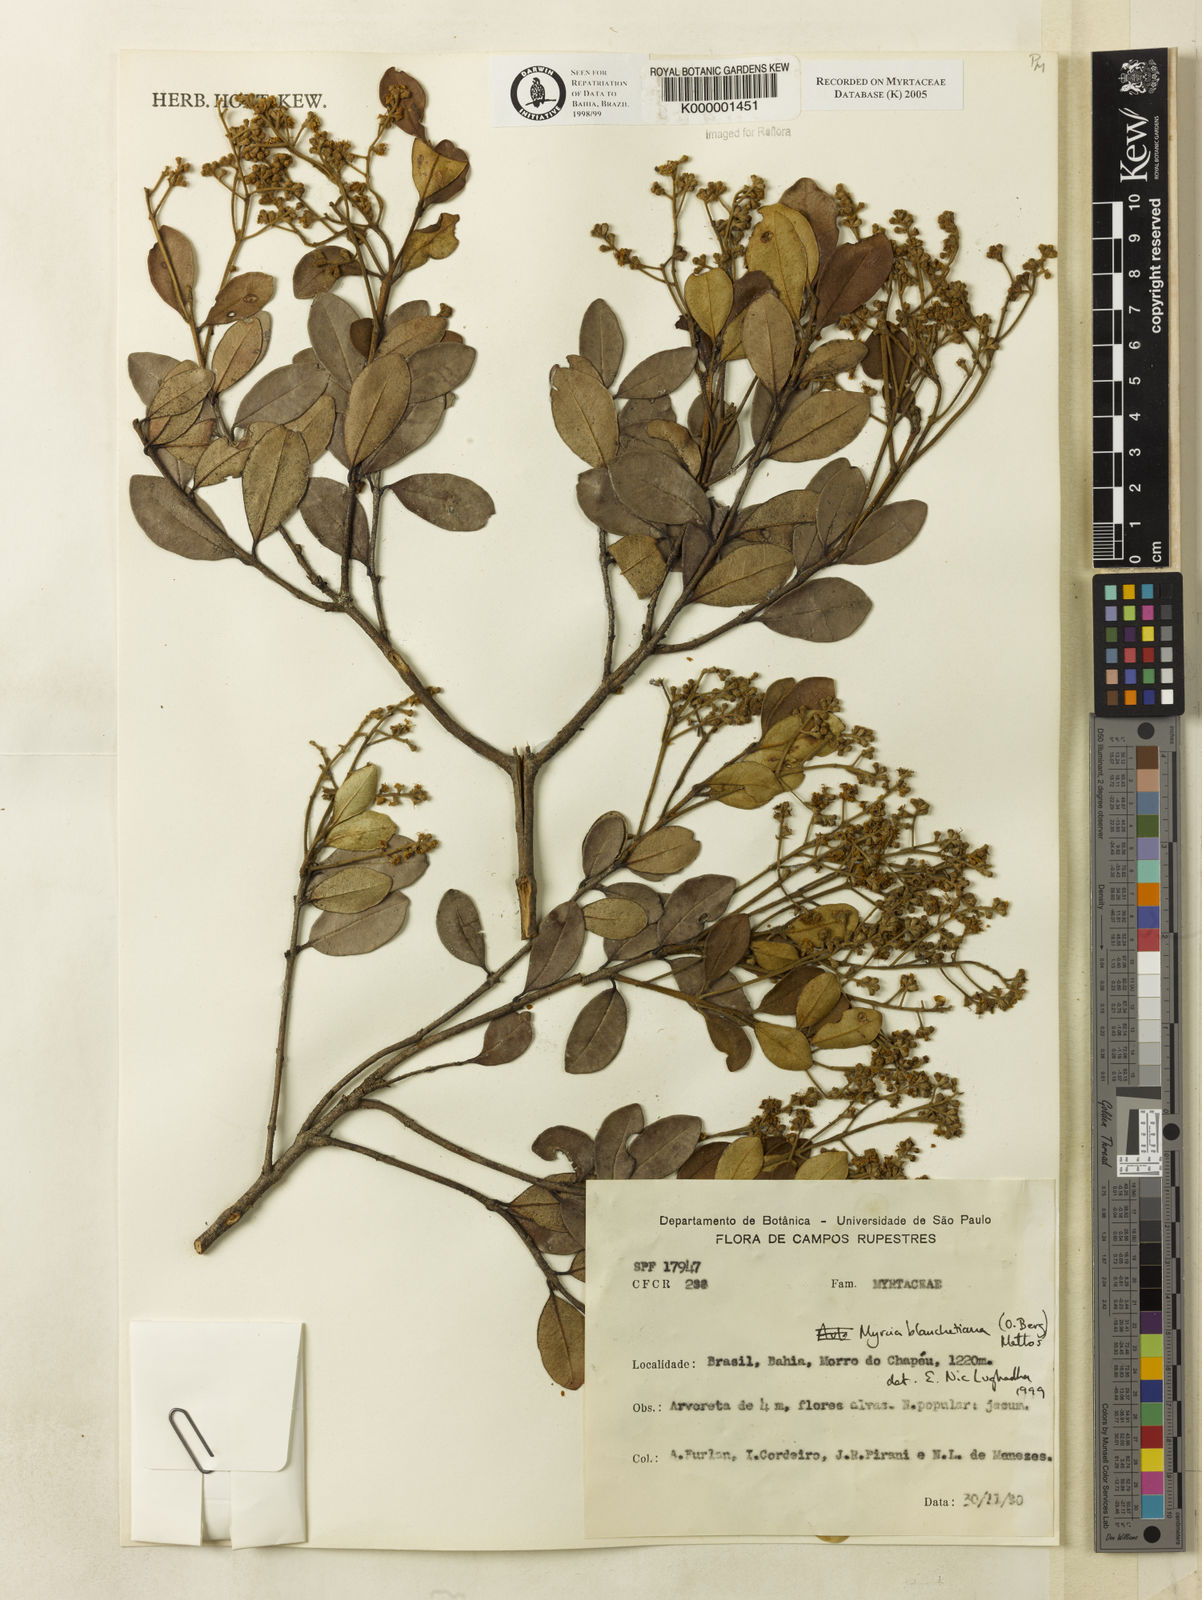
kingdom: Plantae
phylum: Tracheophyta
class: Magnoliopsida
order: Myrtales
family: Myrtaceae
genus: Myrcia
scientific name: Myrcia blanchetiana
